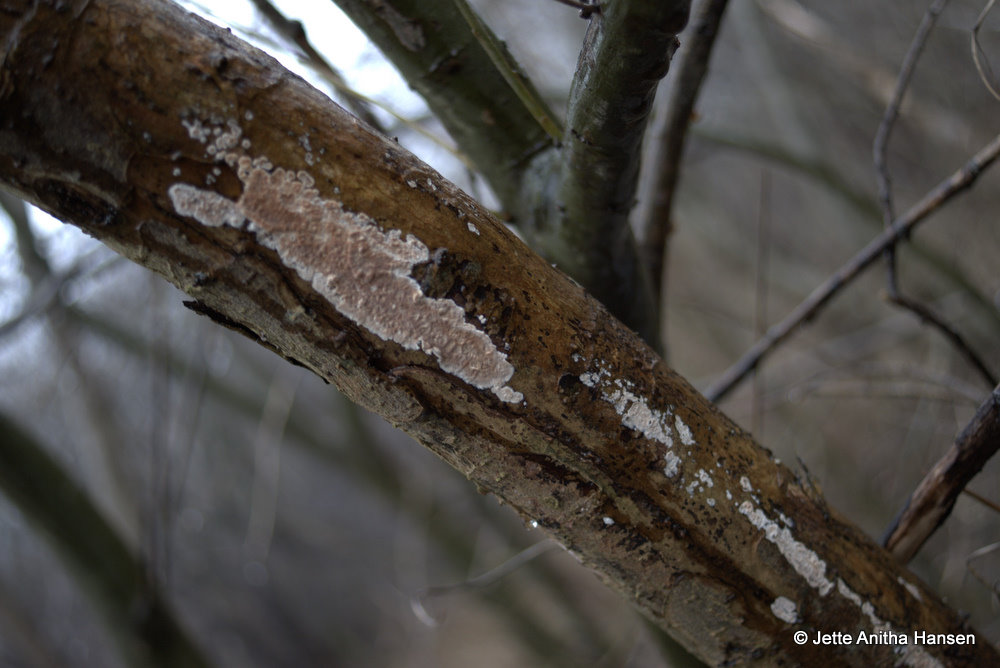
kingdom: Fungi
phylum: Basidiomycota
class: Agaricomycetes
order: Agaricales
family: Physalacriaceae
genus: Cylindrobasidium
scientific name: Cylindrobasidium evolvens
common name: sprækkehinde
